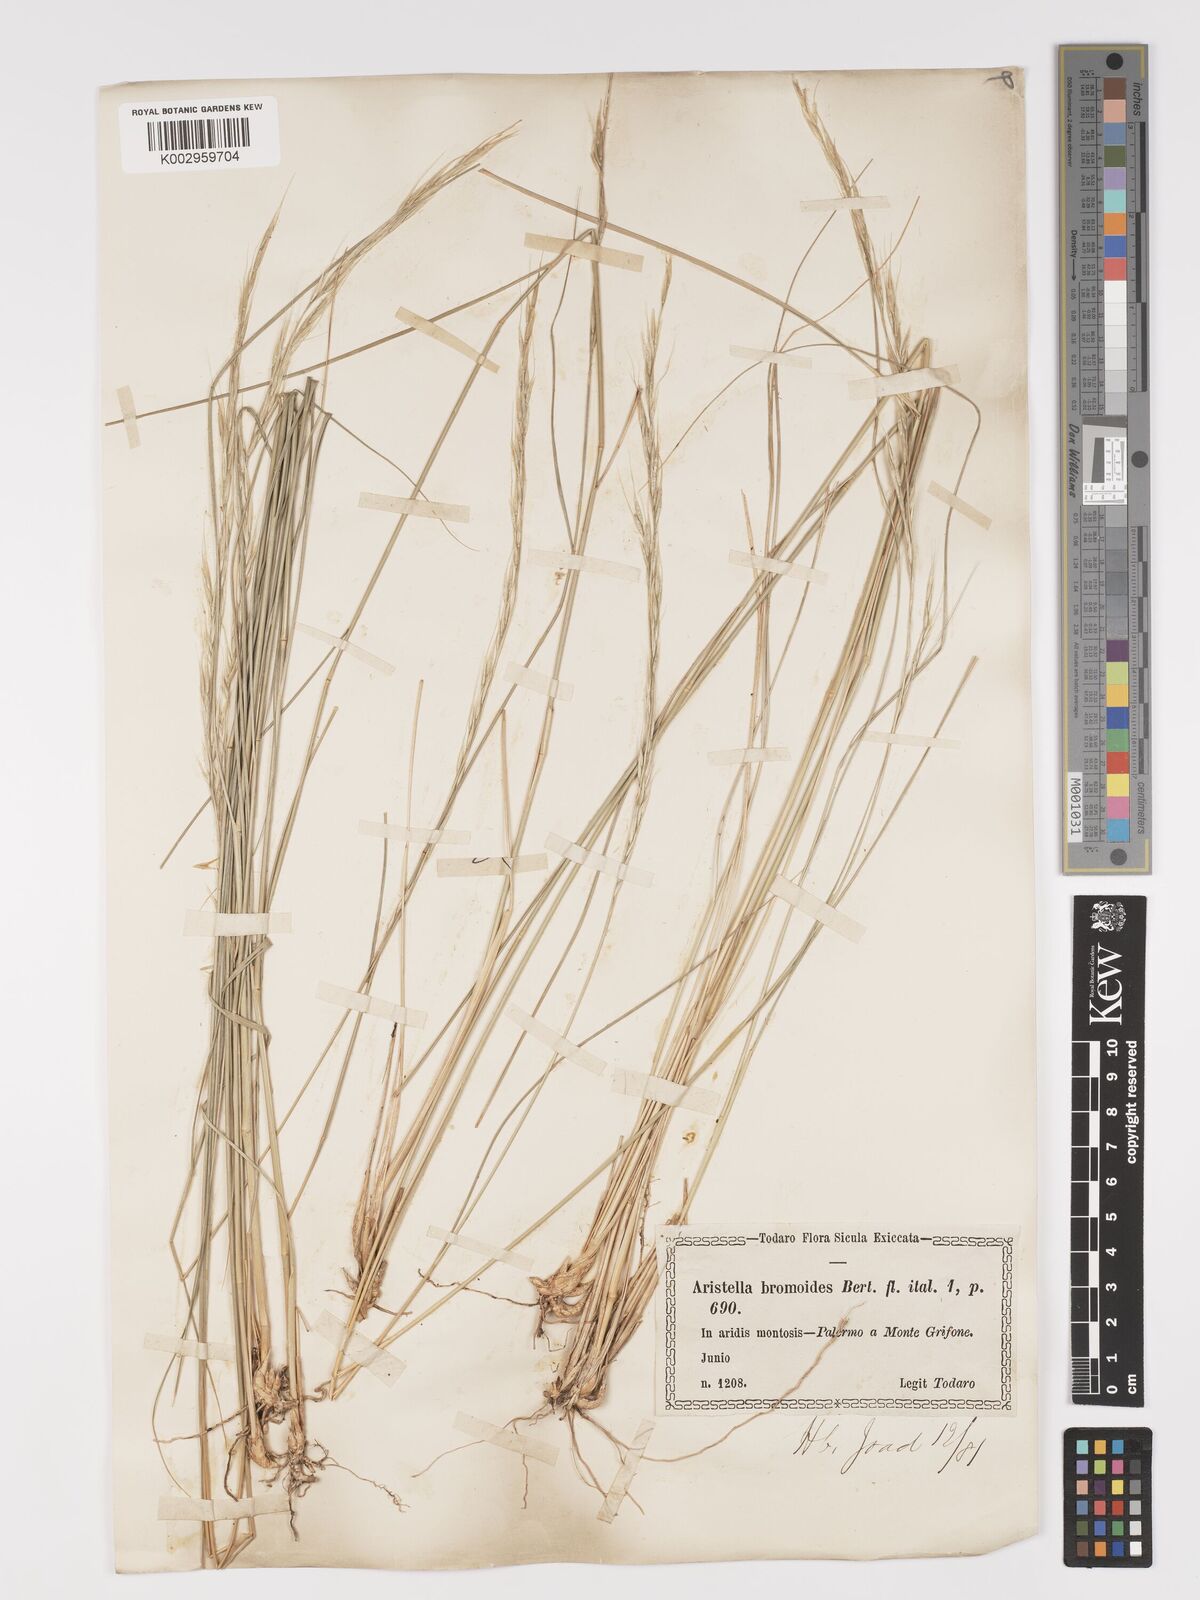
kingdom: Plantae
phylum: Tracheophyta
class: Liliopsida
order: Poales
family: Poaceae
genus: Achnatherum
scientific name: Achnatherum bromoides
